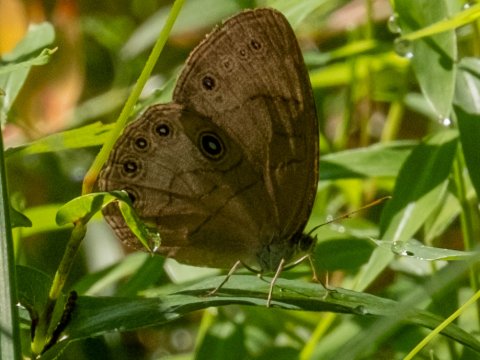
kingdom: Animalia
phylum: Arthropoda
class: Insecta
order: Lepidoptera
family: Nymphalidae
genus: Lethe
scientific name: Lethe eurydice
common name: Appalachian Eyed Brown
